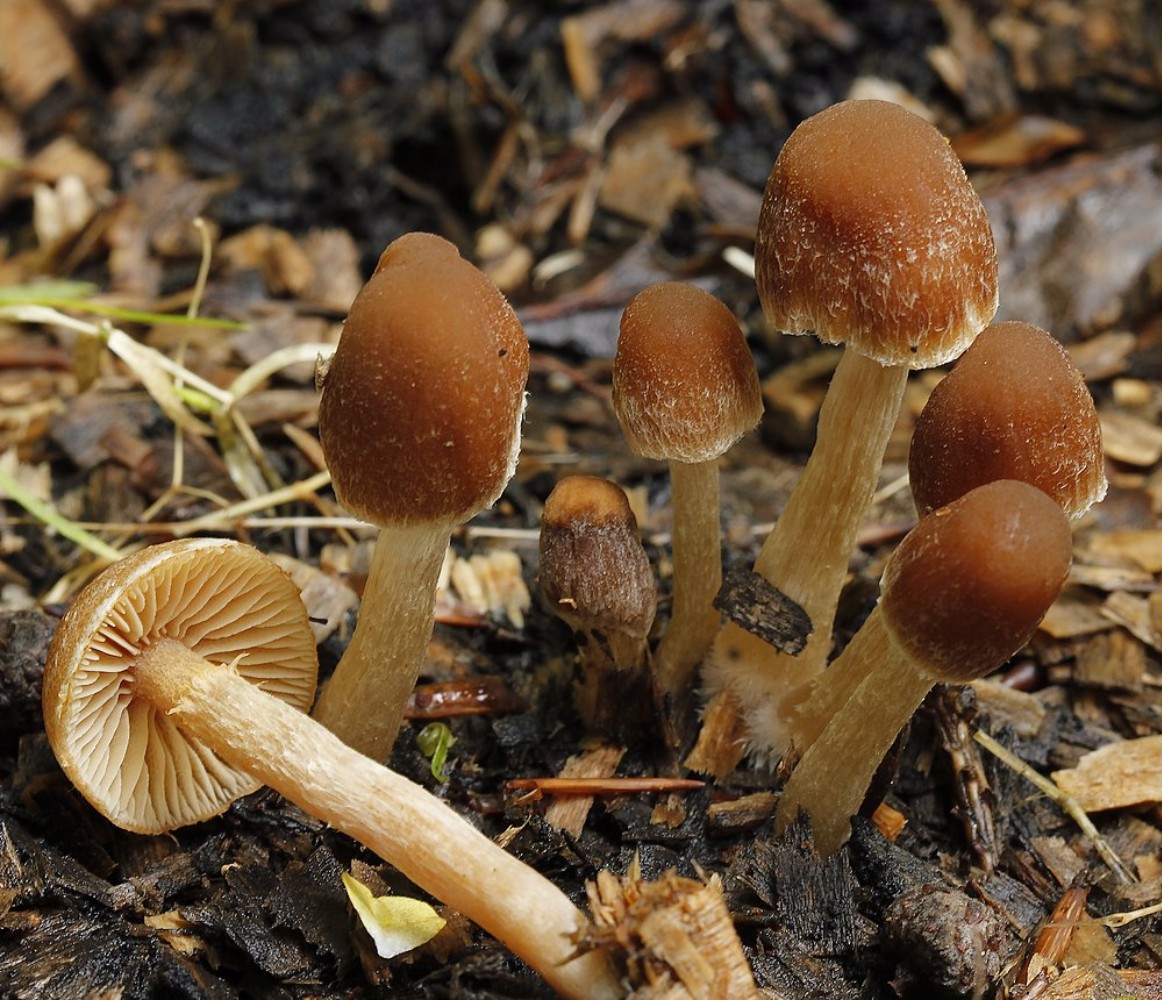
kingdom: Fungi
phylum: Basidiomycota
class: Agaricomycetes
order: Agaricales
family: Psathyrellaceae
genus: Psathyrella
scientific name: Psathyrella
